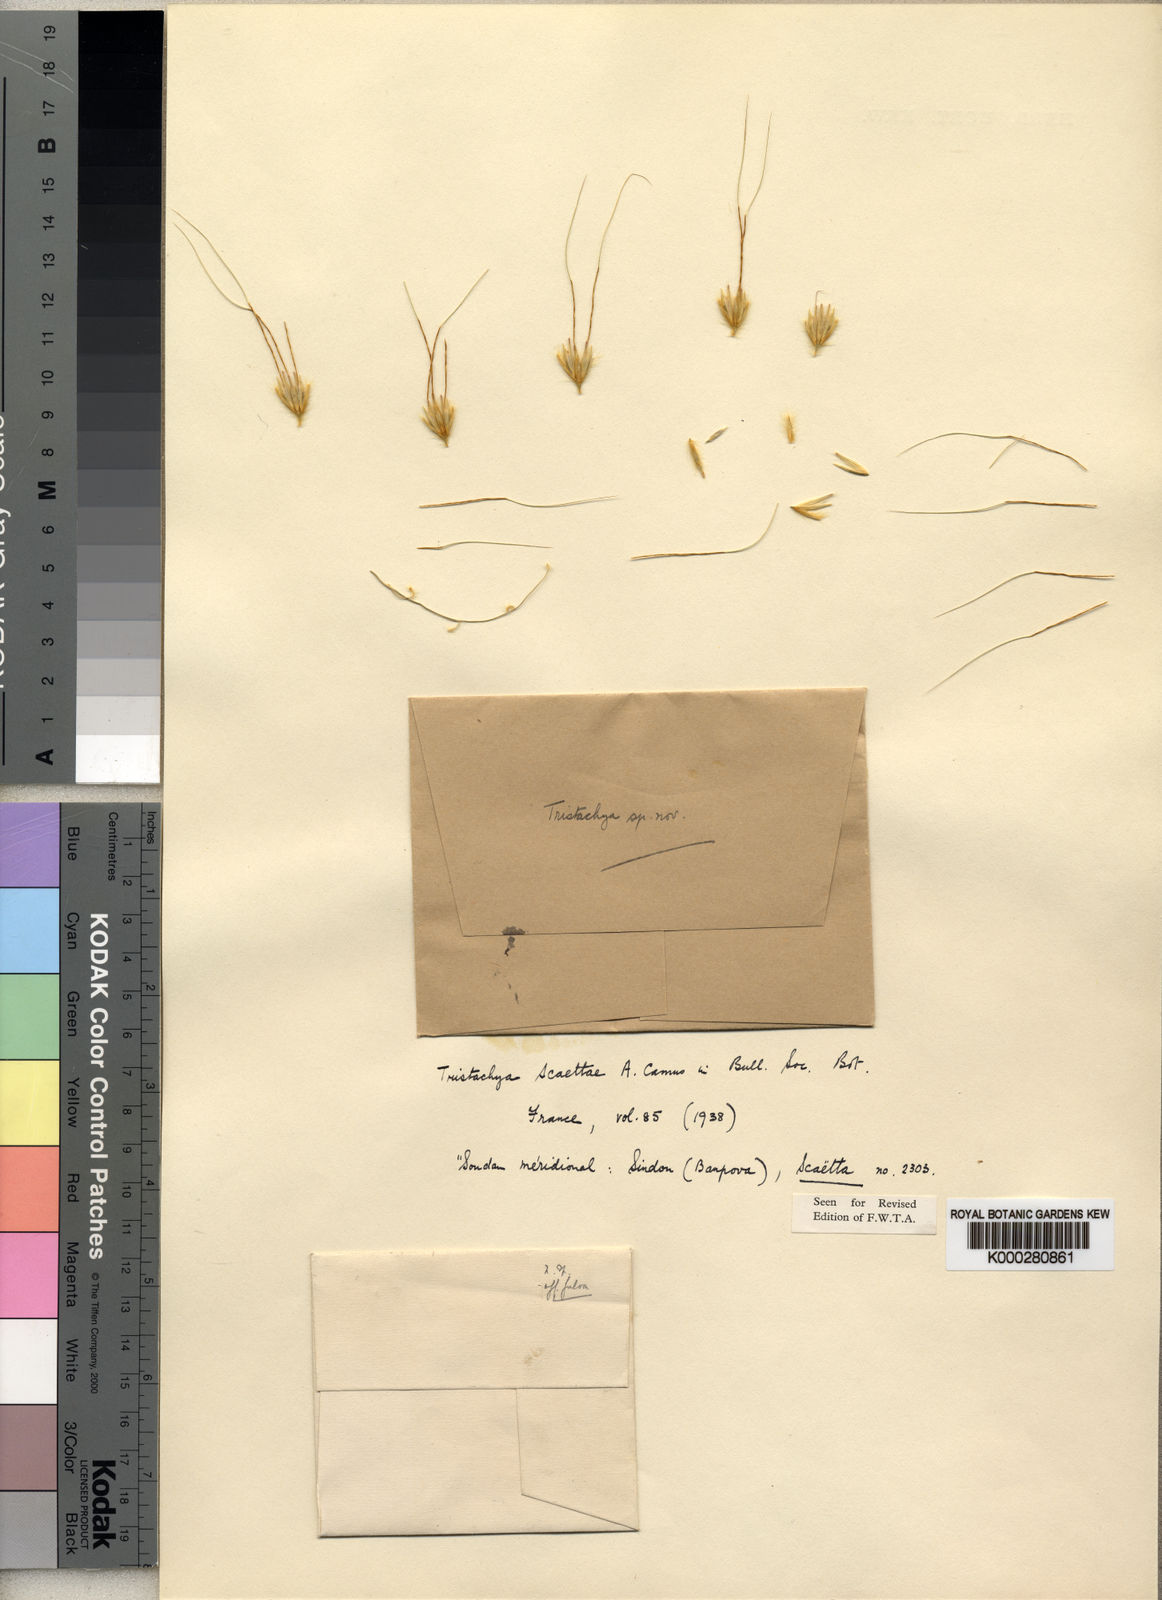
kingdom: Plantae
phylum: Tracheophyta
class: Liliopsida
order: Poales
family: Poaceae
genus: Loudetiopsis
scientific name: Loudetiopsis scaettae
